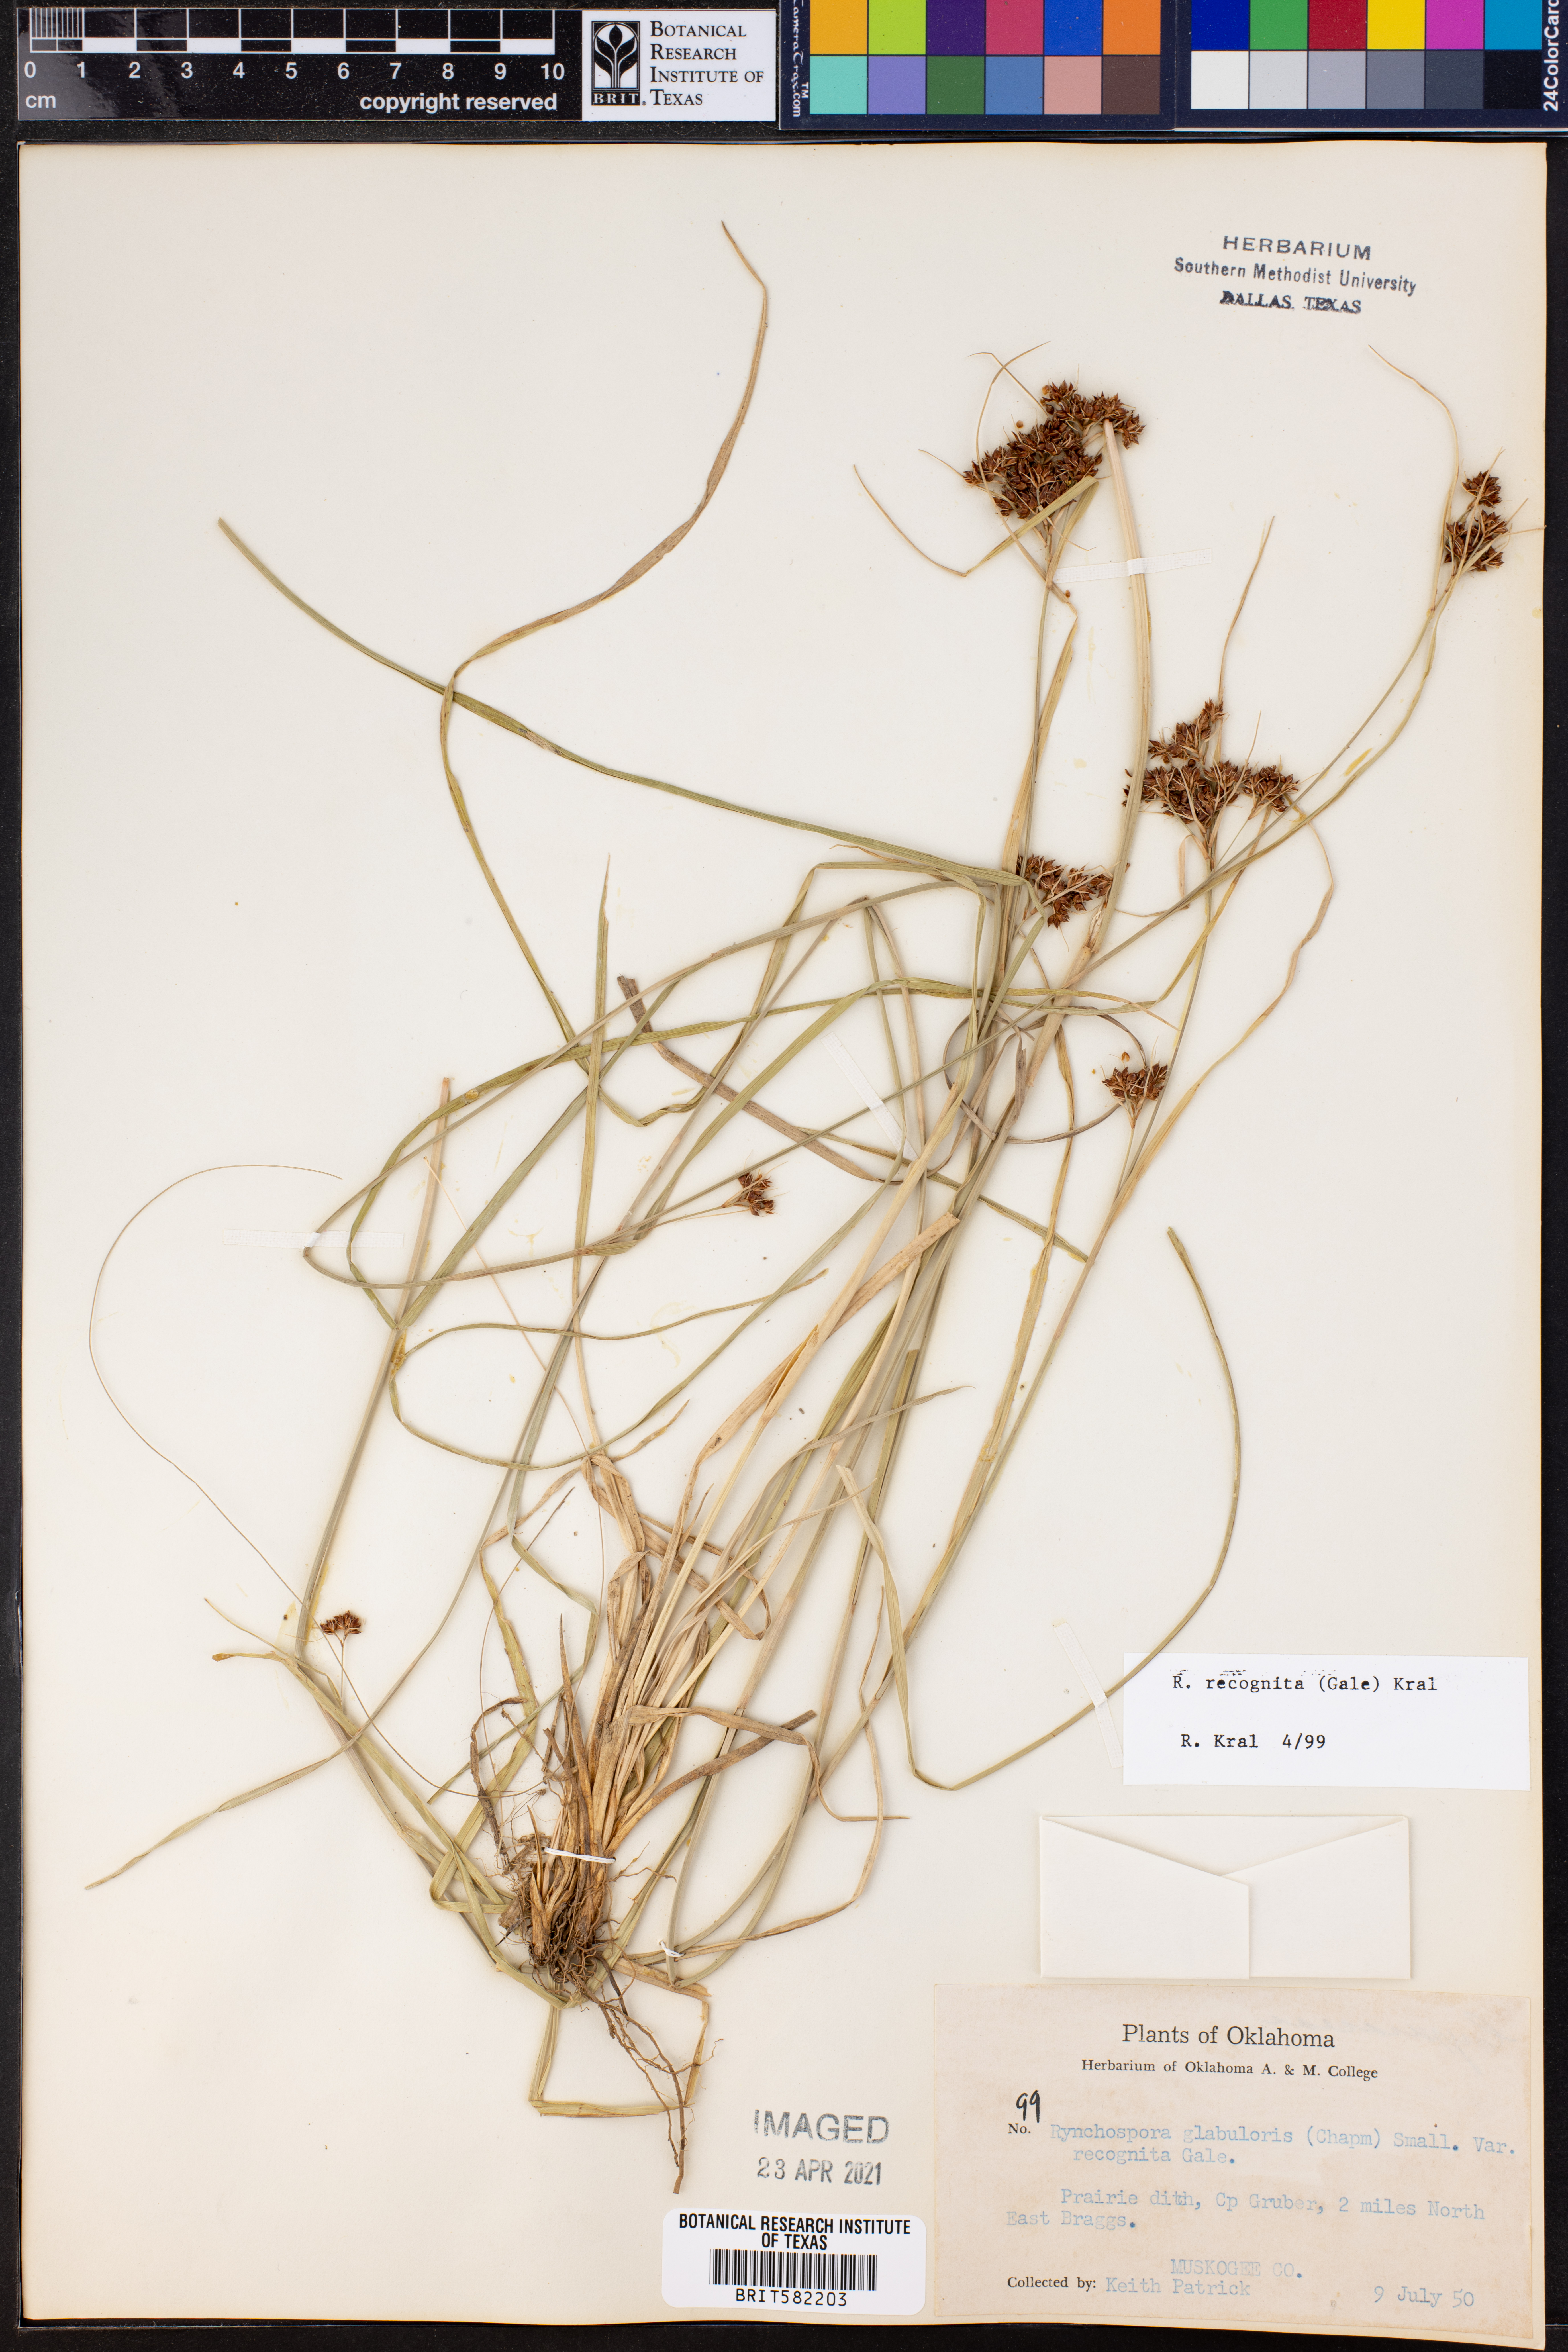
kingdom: Plantae
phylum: Tracheophyta
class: Liliopsida
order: Poales
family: Cyperaceae
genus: Rhynchospora
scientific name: Rhynchospora recognita
